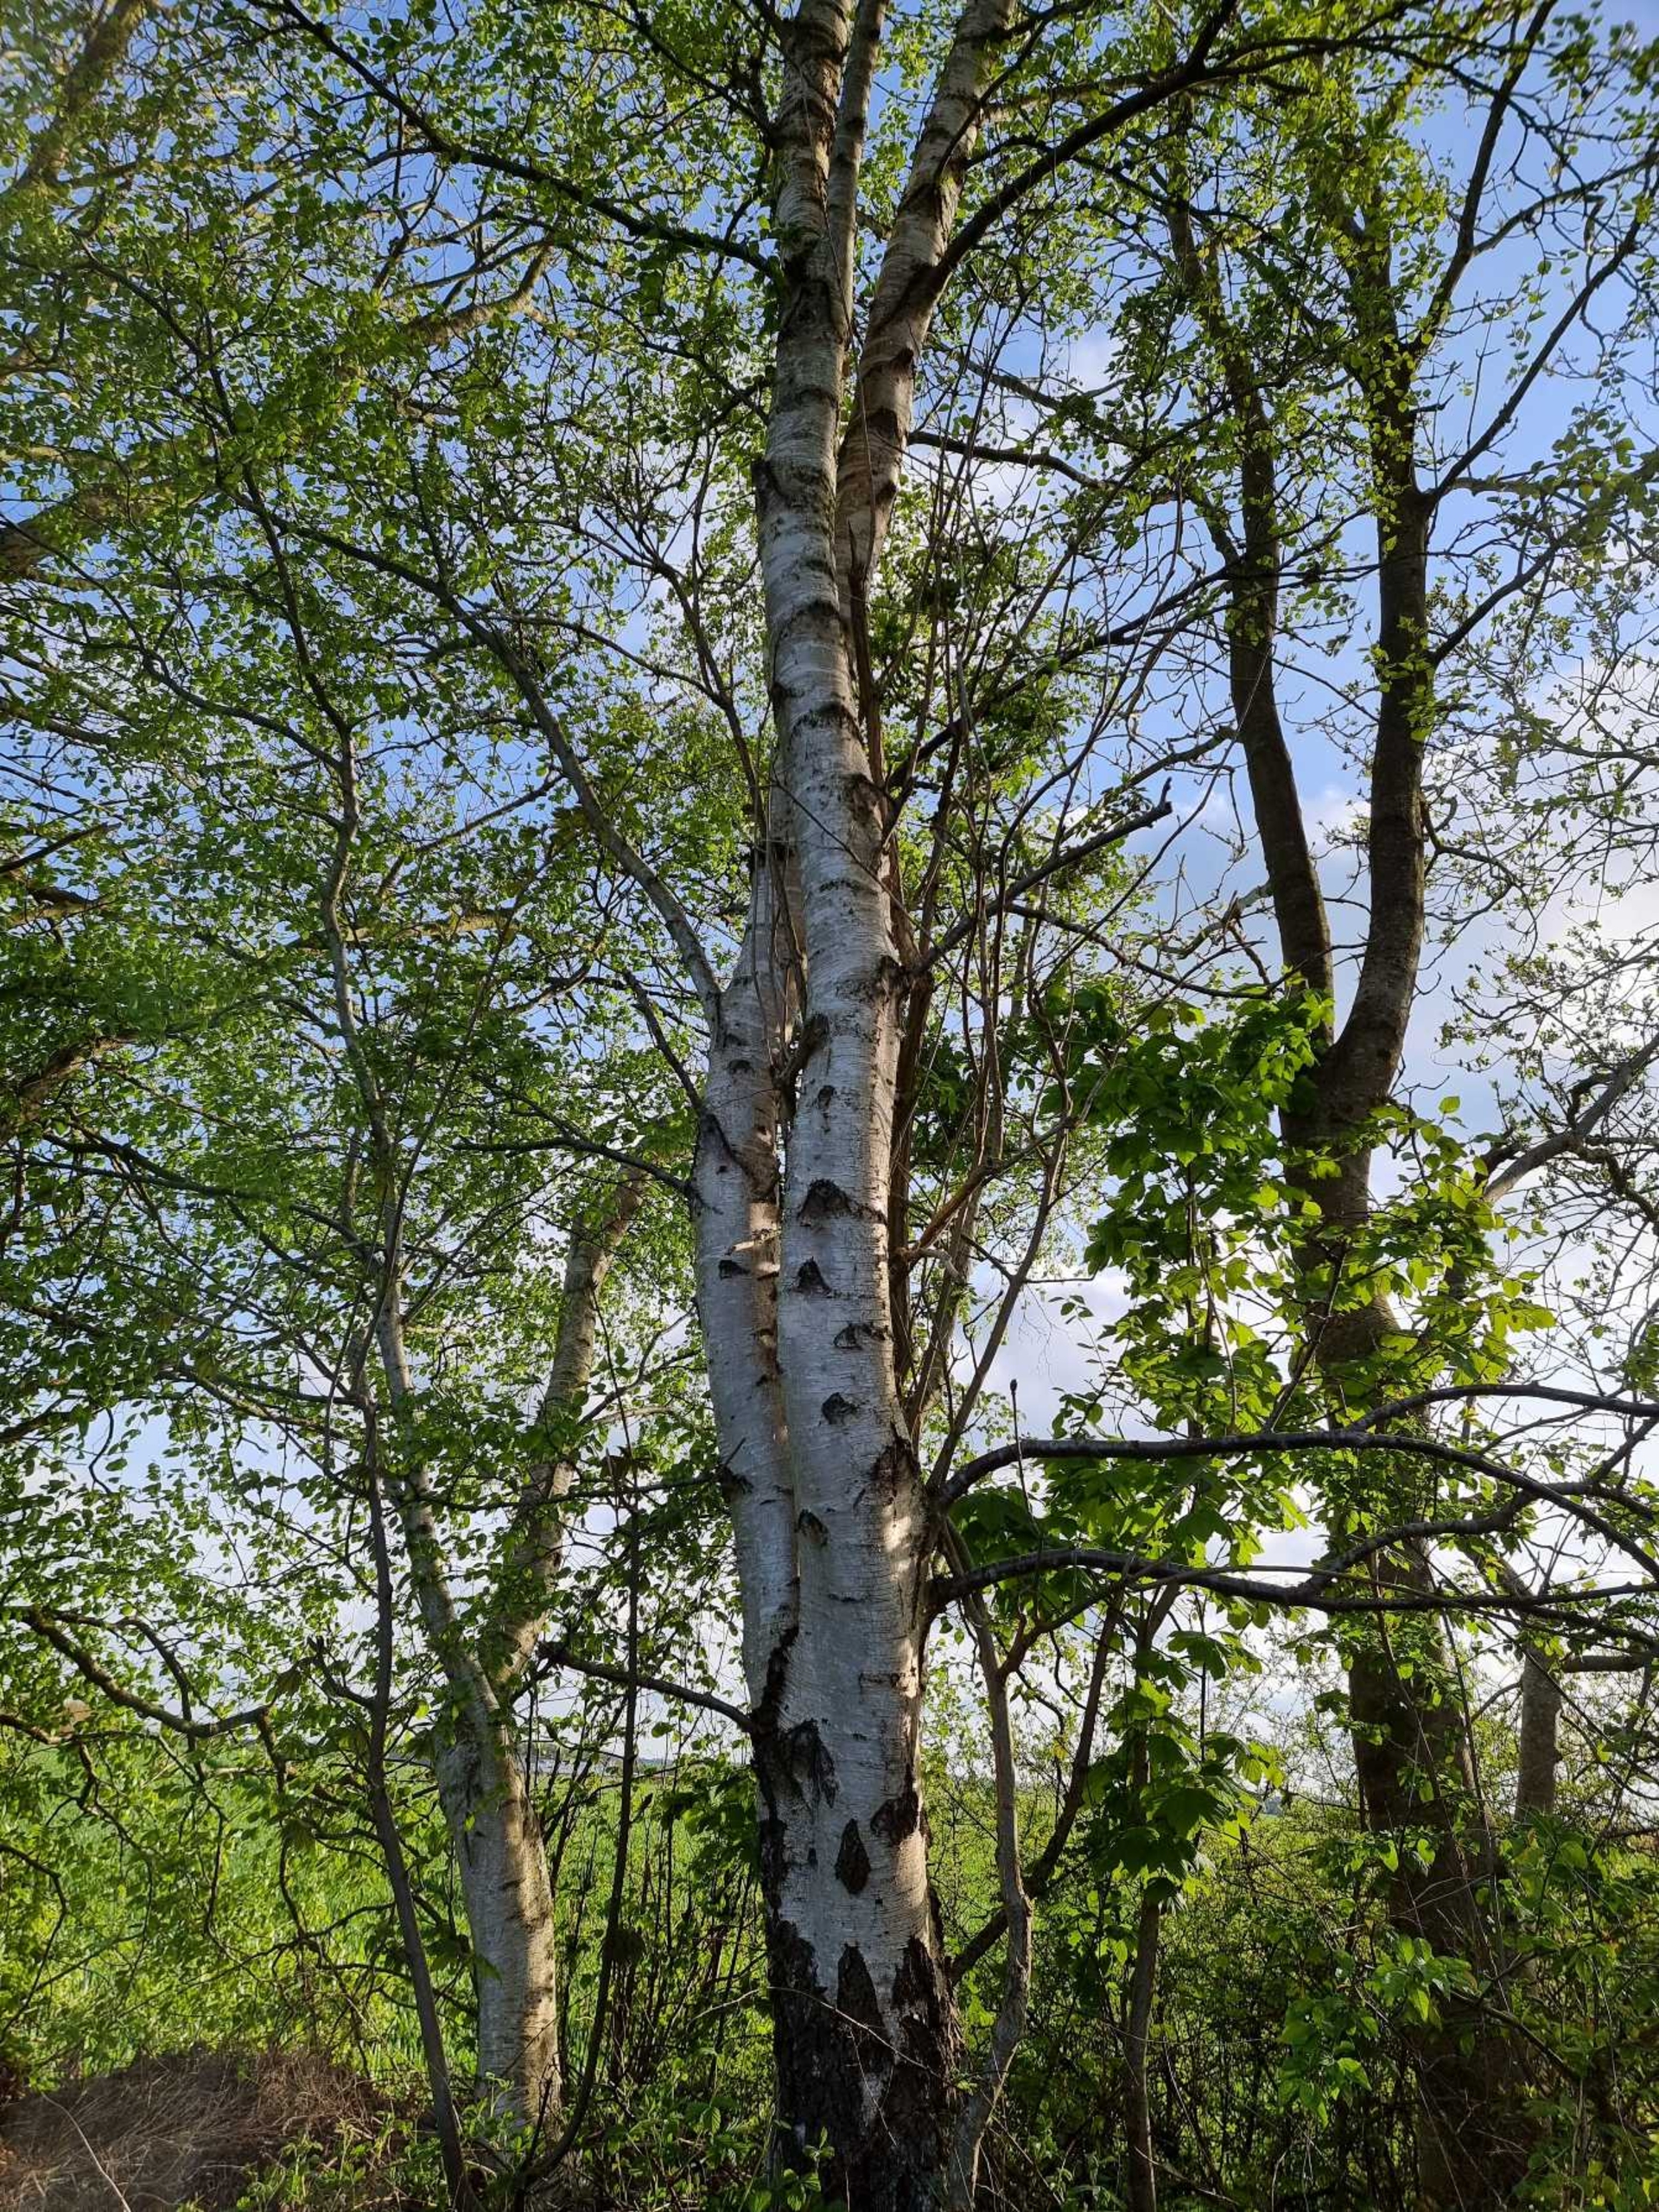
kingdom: Plantae
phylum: Tracheophyta
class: Magnoliopsida
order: Fagales
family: Betulaceae
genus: Betula
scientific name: Betula pendula
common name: Vorte-birk
